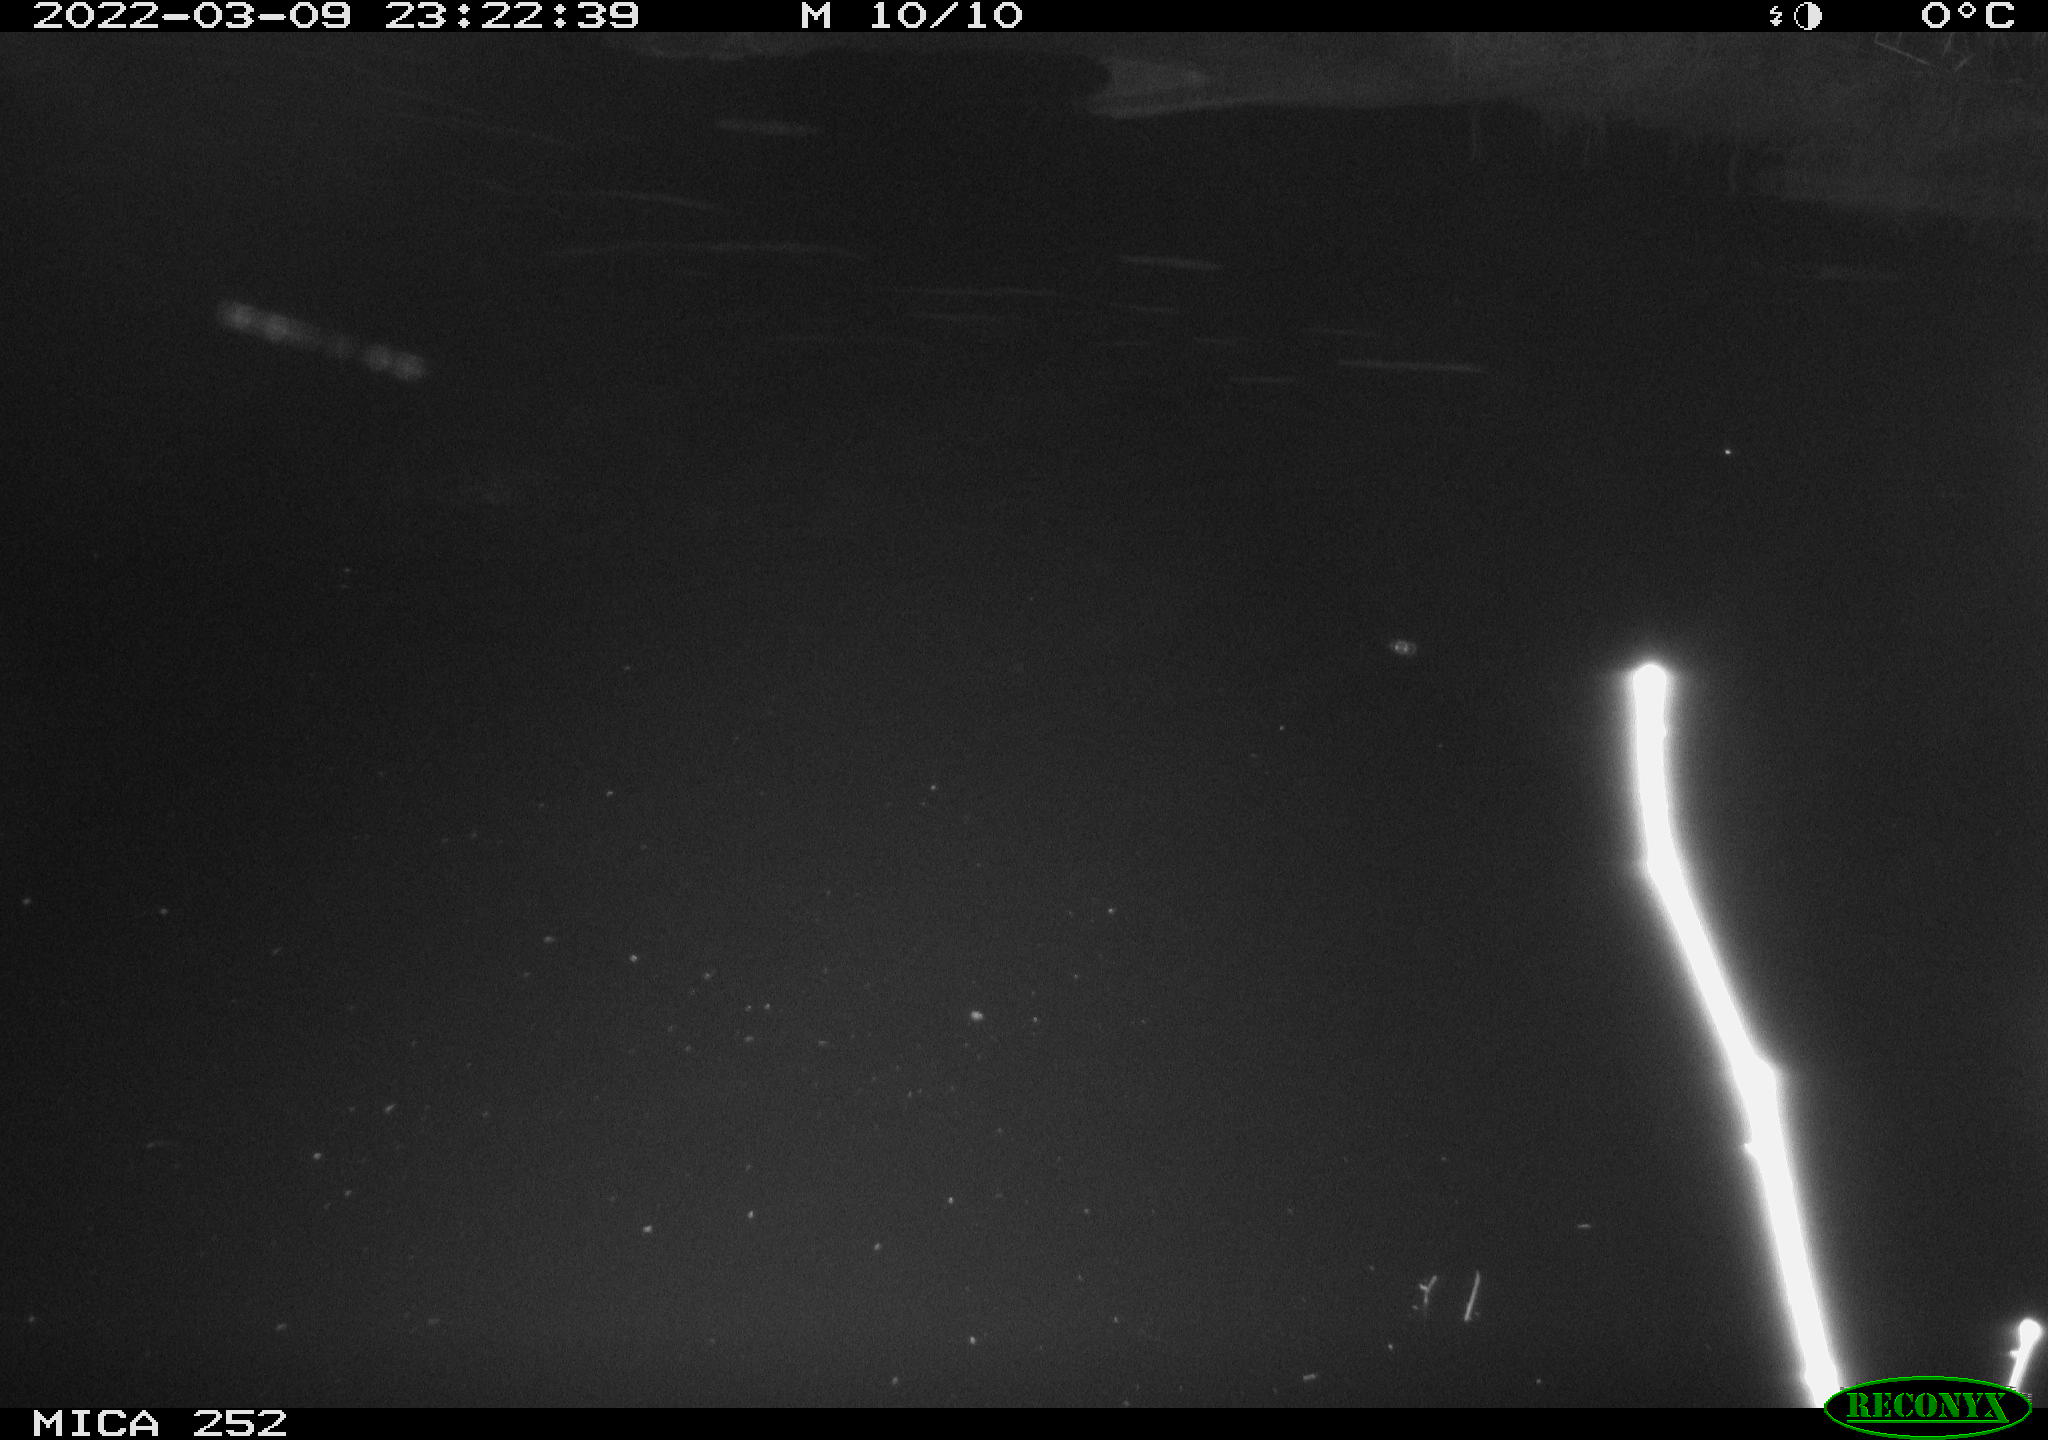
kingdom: Animalia
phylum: Chordata
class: Mammalia
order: Rodentia
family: Castoridae
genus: Castor
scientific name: Castor fiber
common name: Eurasian beaver
